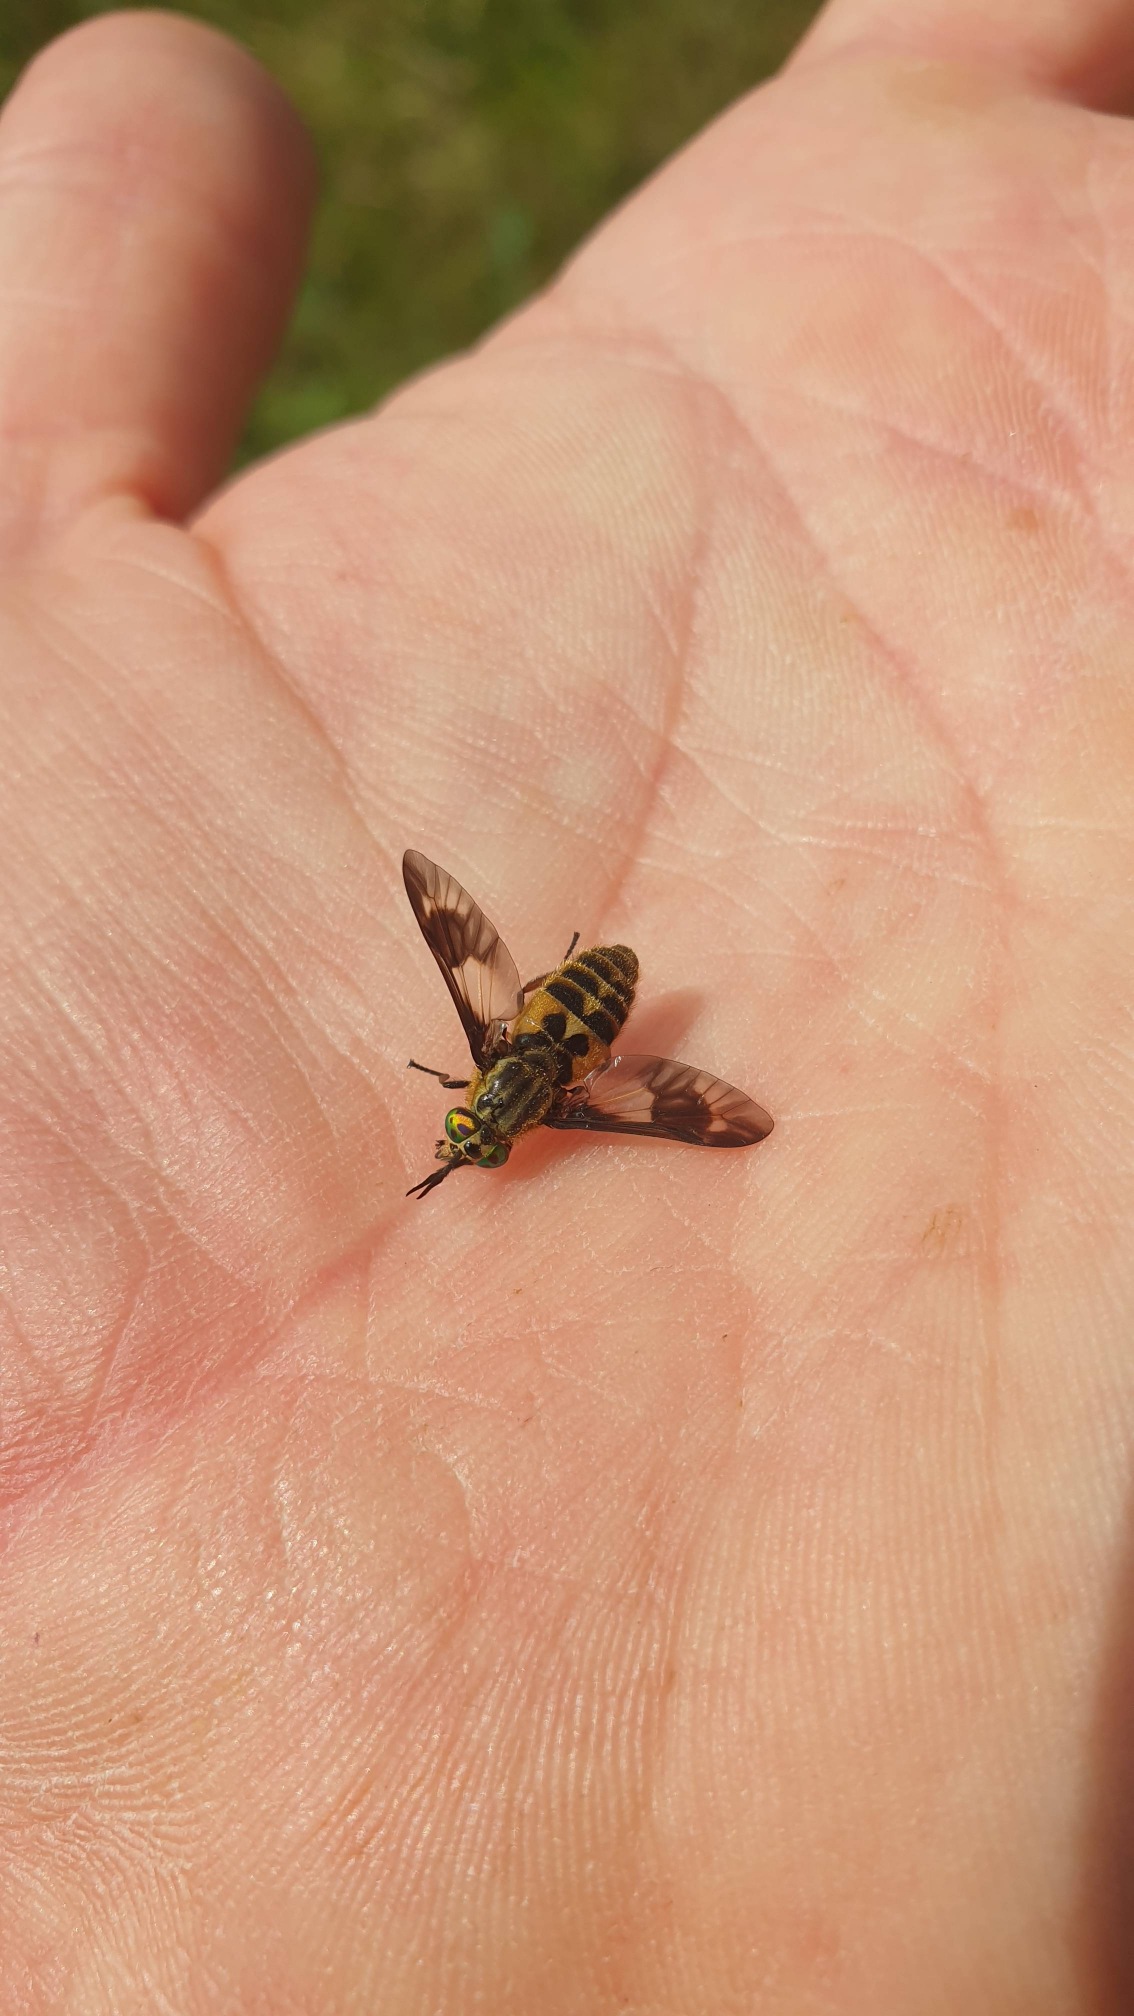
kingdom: Animalia
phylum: Arthropoda
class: Insecta
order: Diptera
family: Tabanidae
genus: Chrysops
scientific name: Chrysops relictus
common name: Guldklæg
